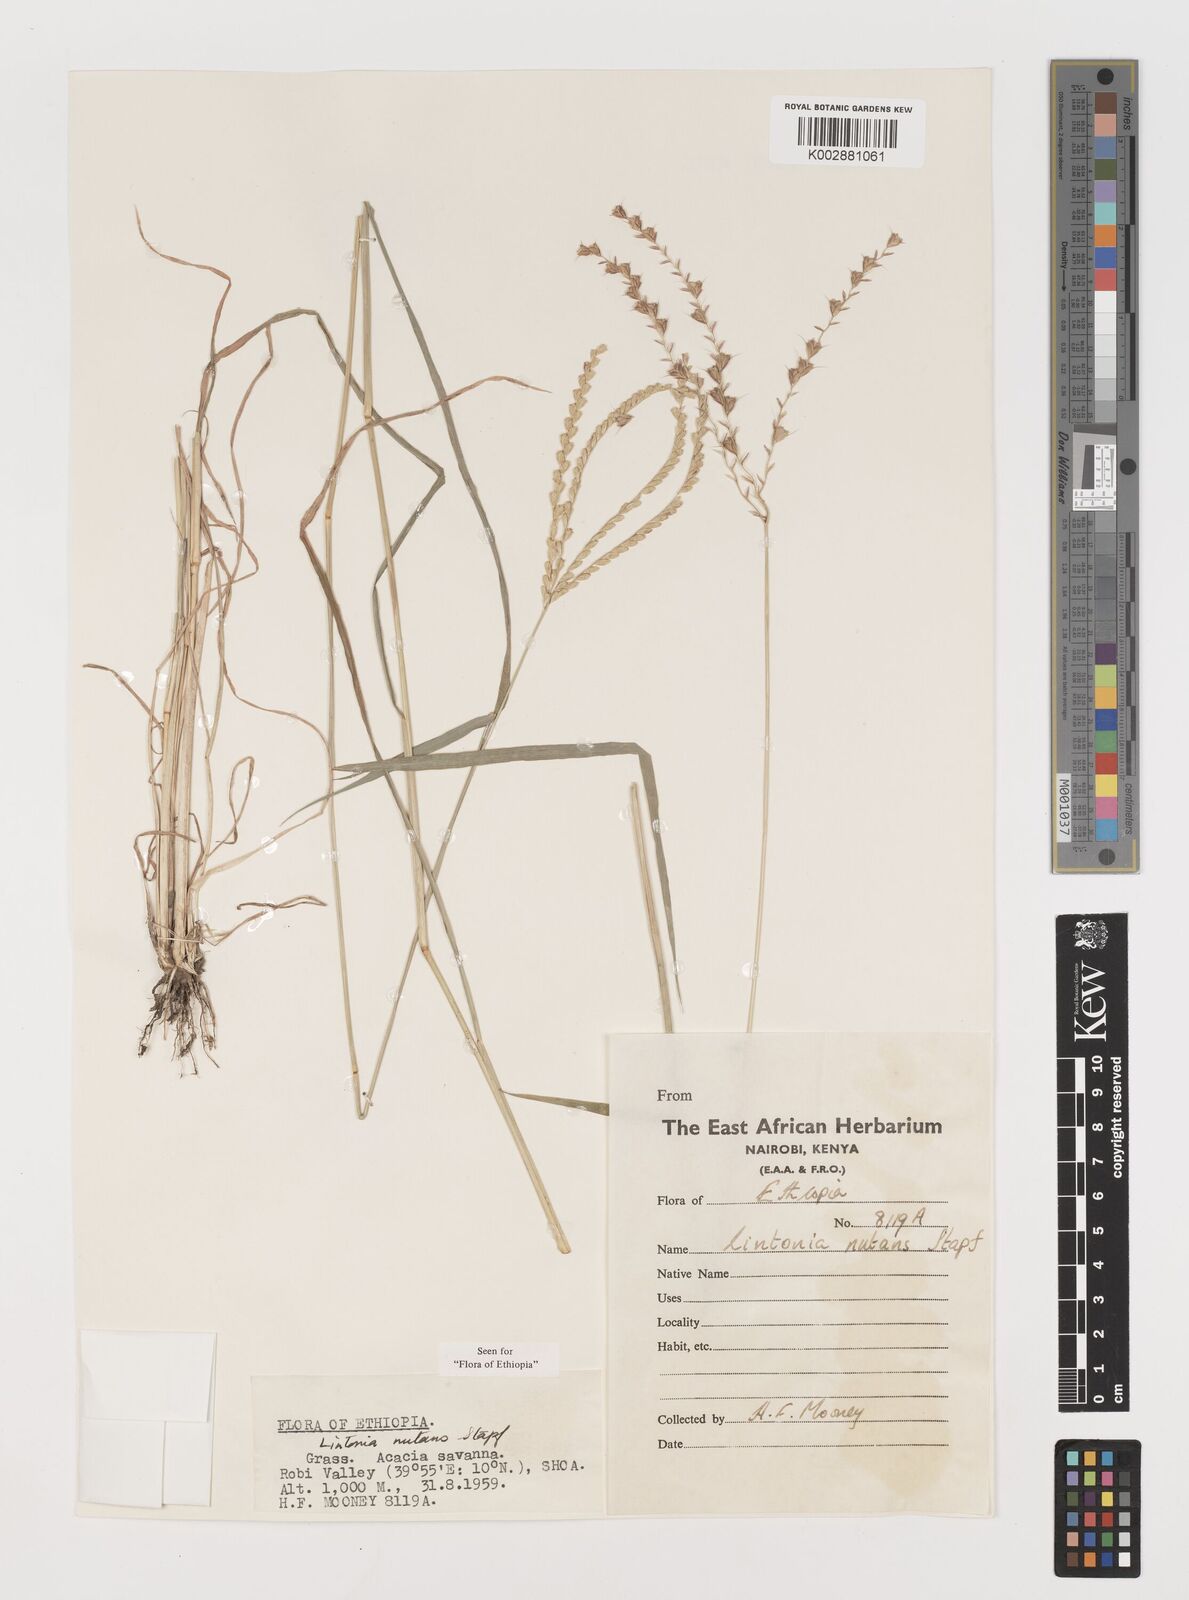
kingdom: Plantae
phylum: Tracheophyta
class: Liliopsida
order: Poales
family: Poaceae
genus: Chloris
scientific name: Chloris nutans
